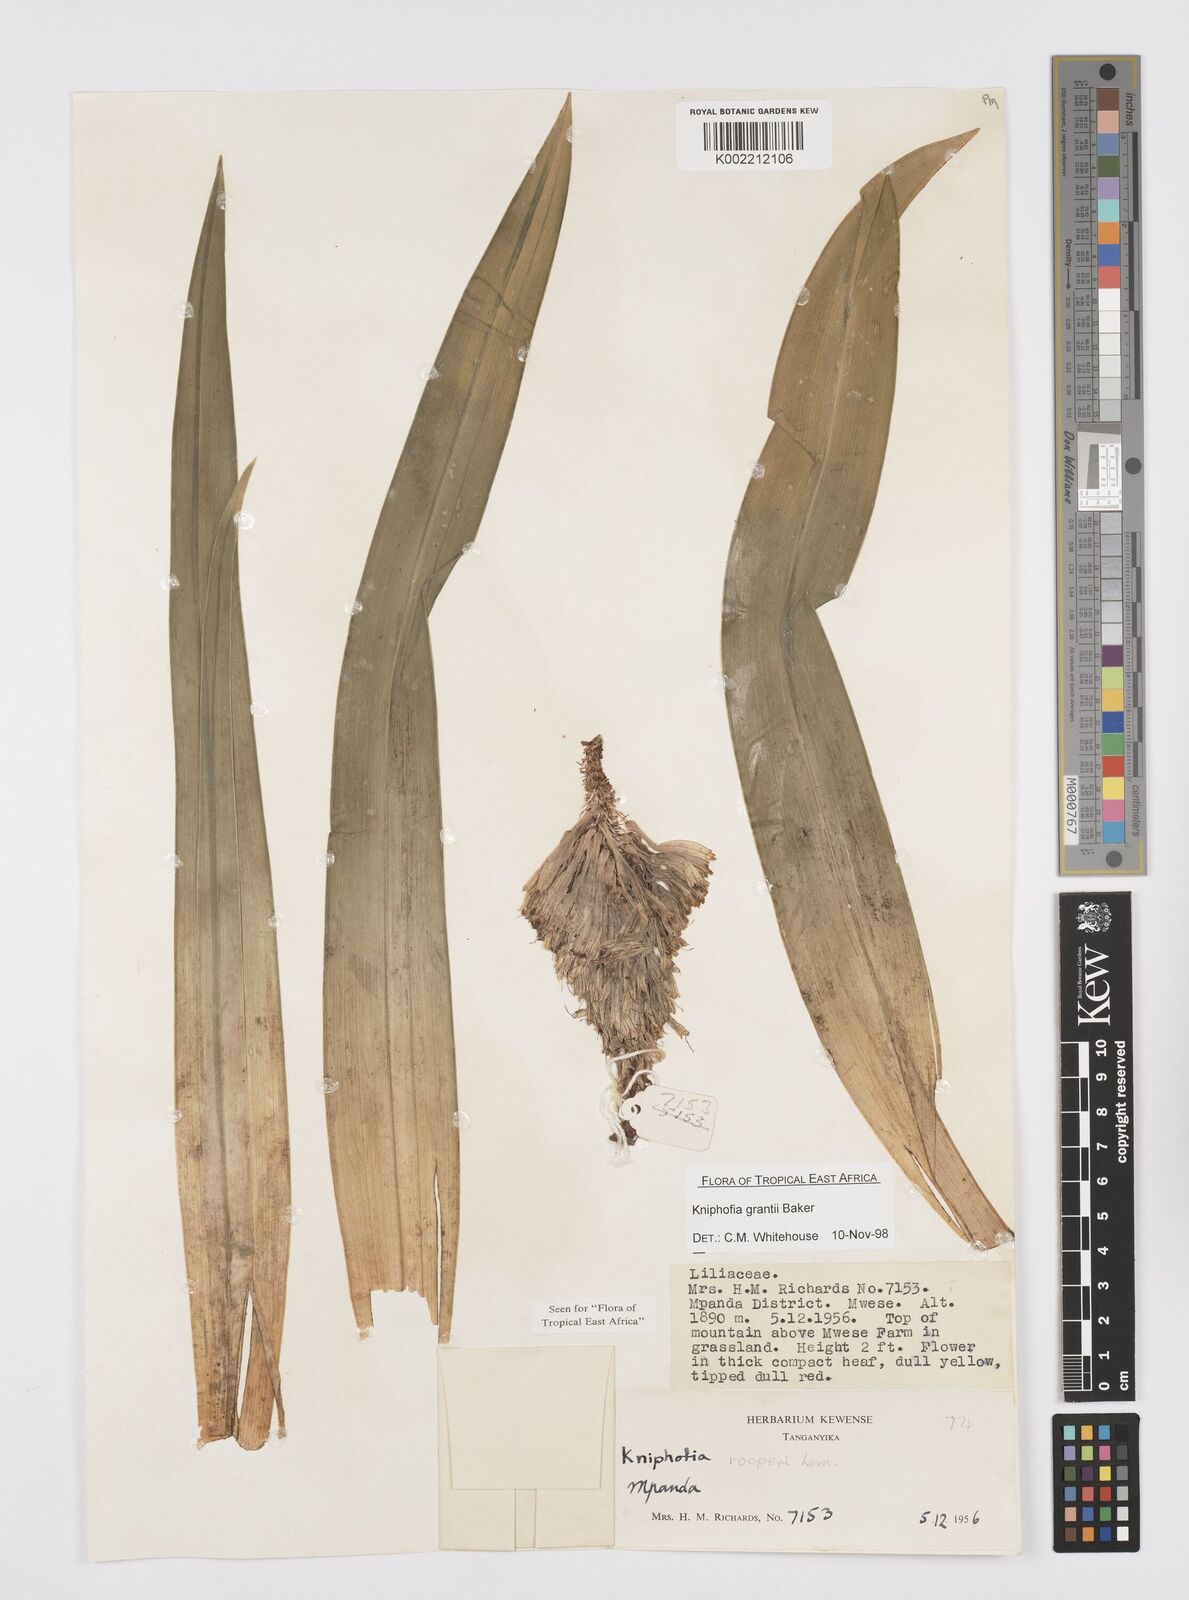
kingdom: Plantae
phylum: Tracheophyta
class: Liliopsida
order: Asparagales
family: Asphodelaceae
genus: Kniphofia
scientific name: Kniphofia grantii
